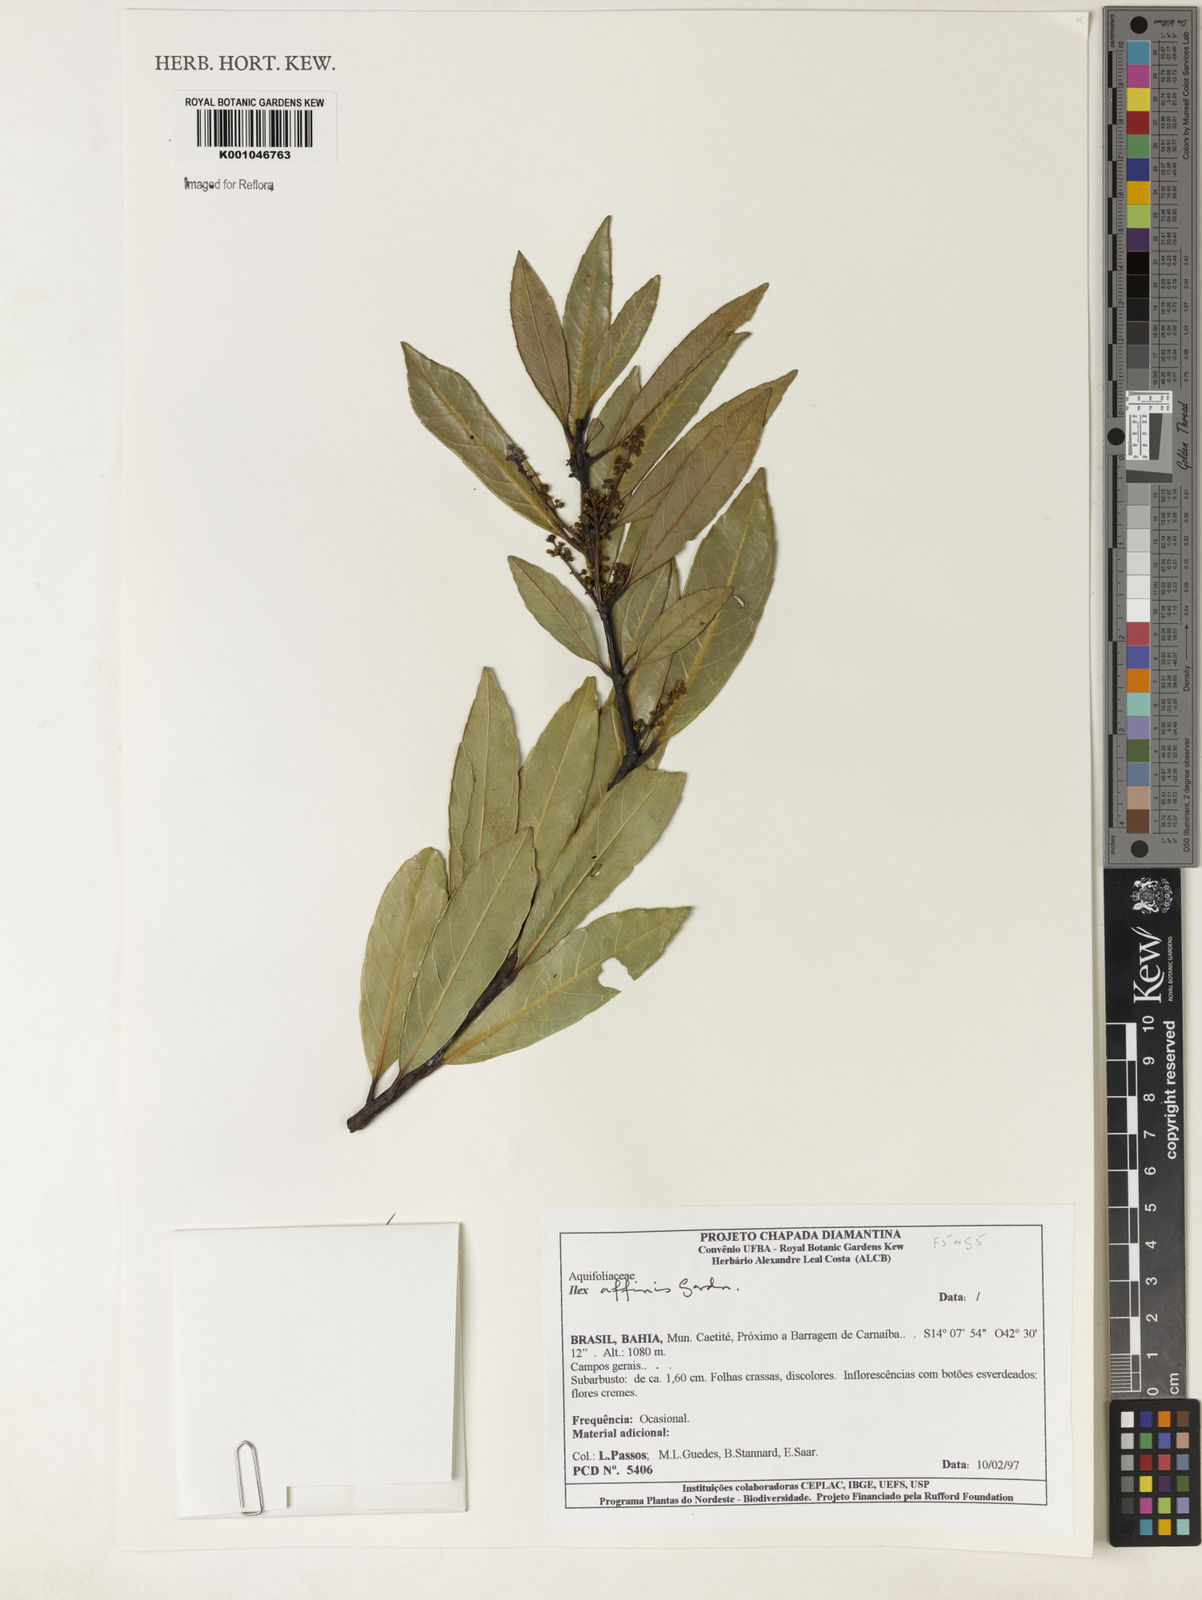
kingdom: Plantae
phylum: Tracheophyta
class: Magnoliopsida
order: Aquifoliales
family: Aquifoliaceae
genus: Ilex
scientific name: Ilex affinis
